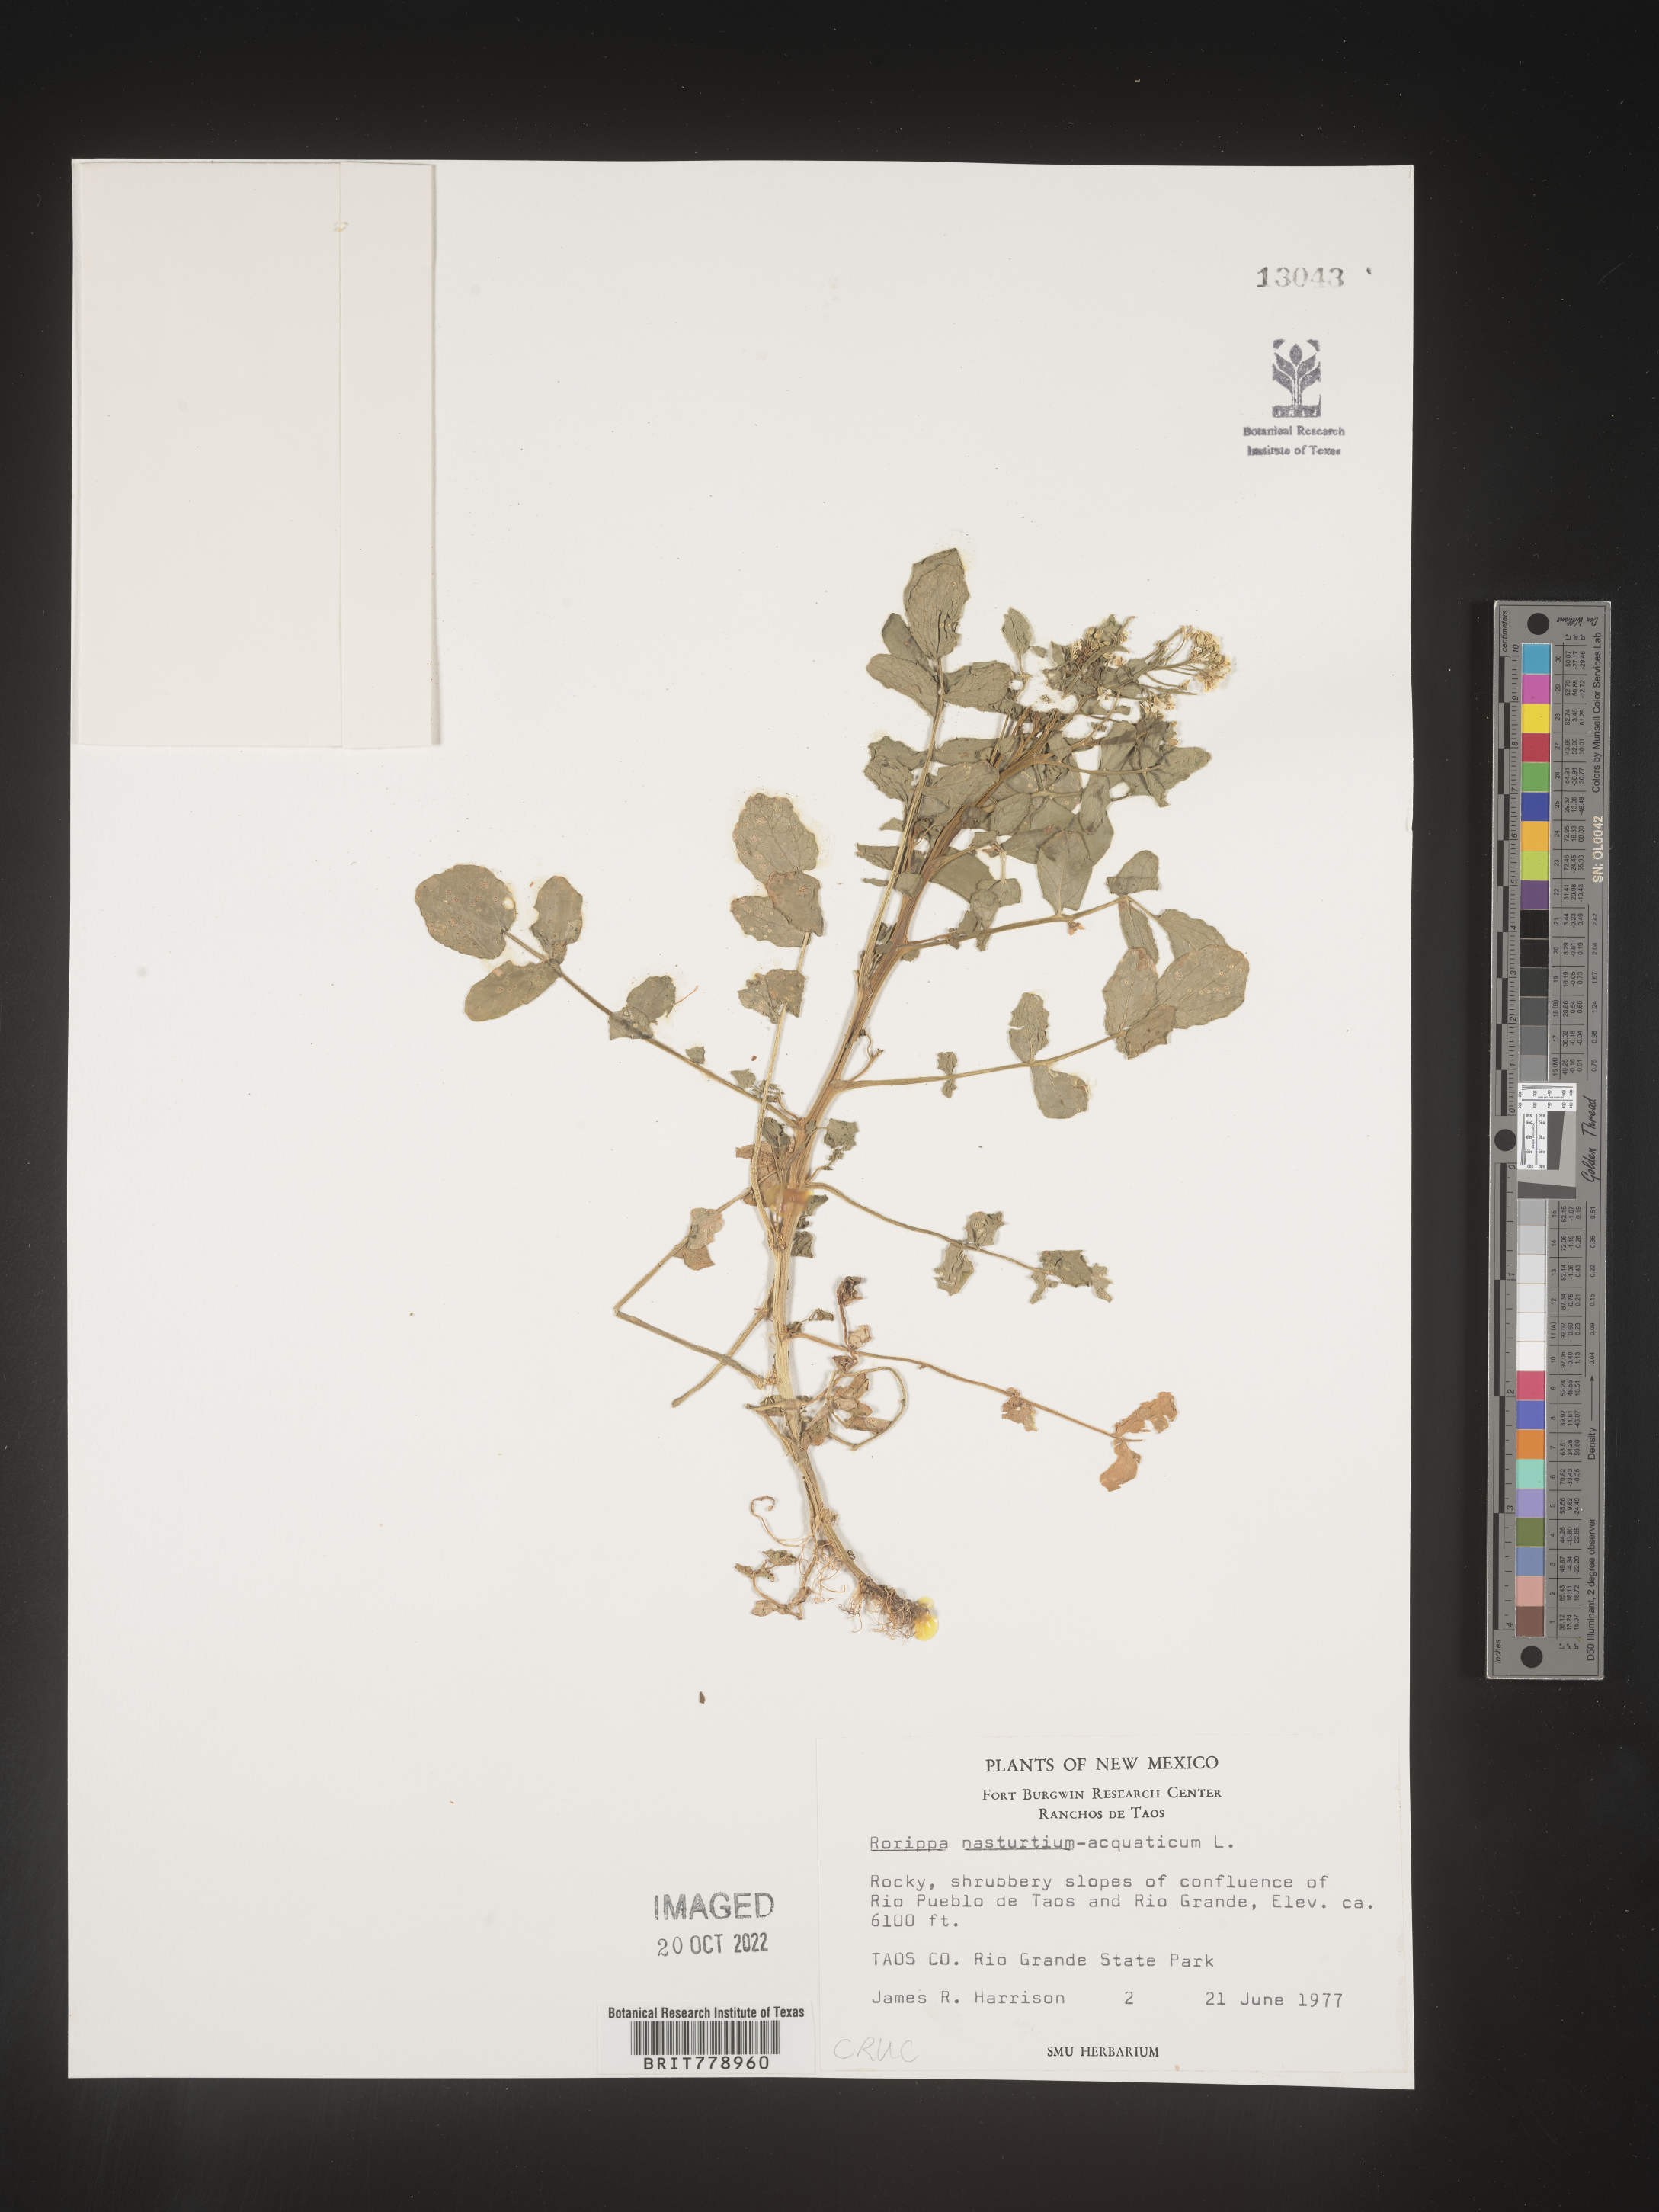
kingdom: Plantae
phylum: Tracheophyta
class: Magnoliopsida
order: Brassicales
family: Brassicaceae
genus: Nasturtium
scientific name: Nasturtium officinale
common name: Watercress
